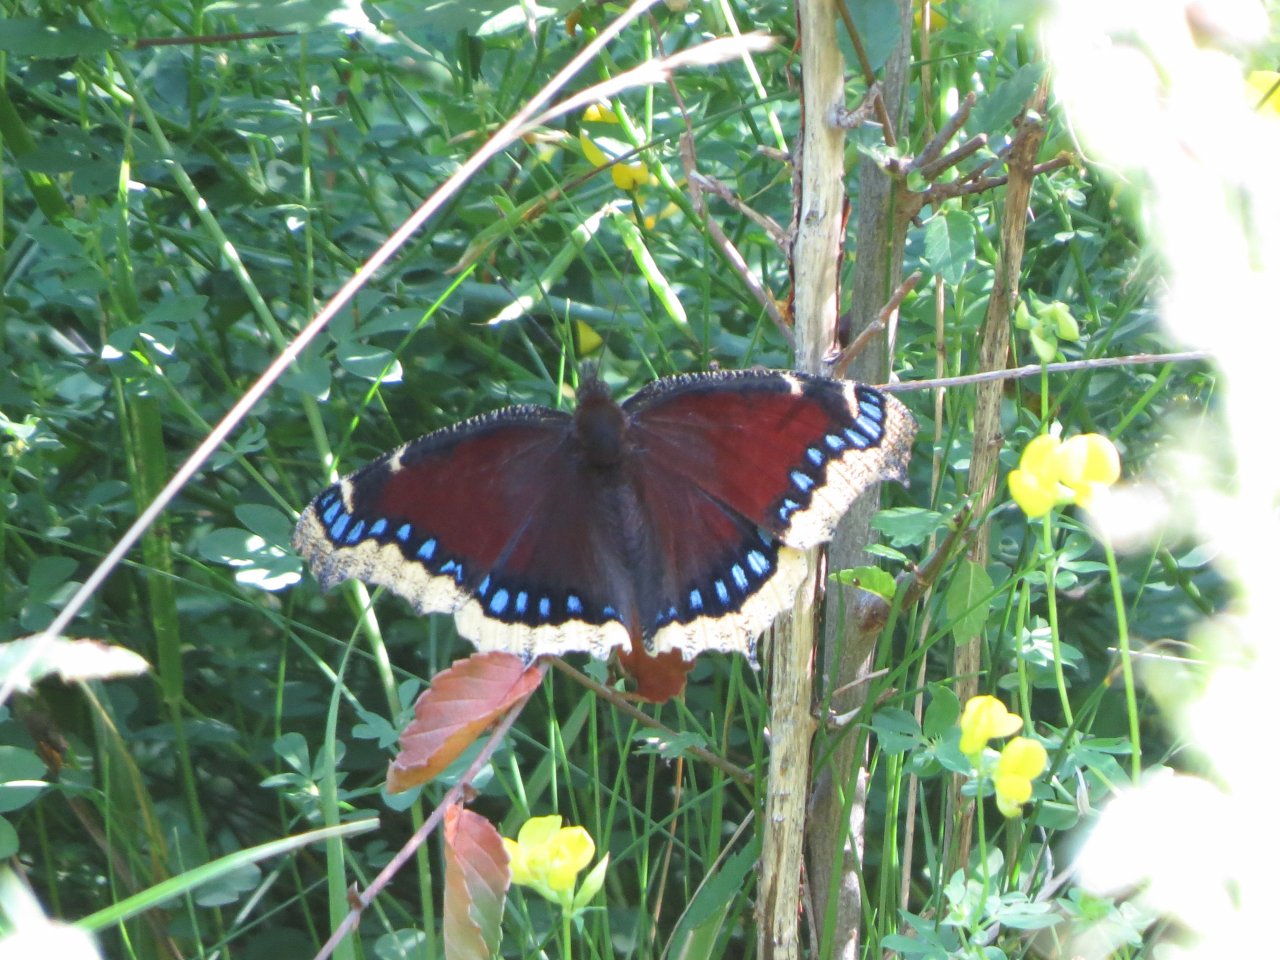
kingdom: Animalia
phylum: Arthropoda
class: Insecta
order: Lepidoptera
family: Nymphalidae
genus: Nymphalis
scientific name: Nymphalis antiopa
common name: Mourning Cloak
